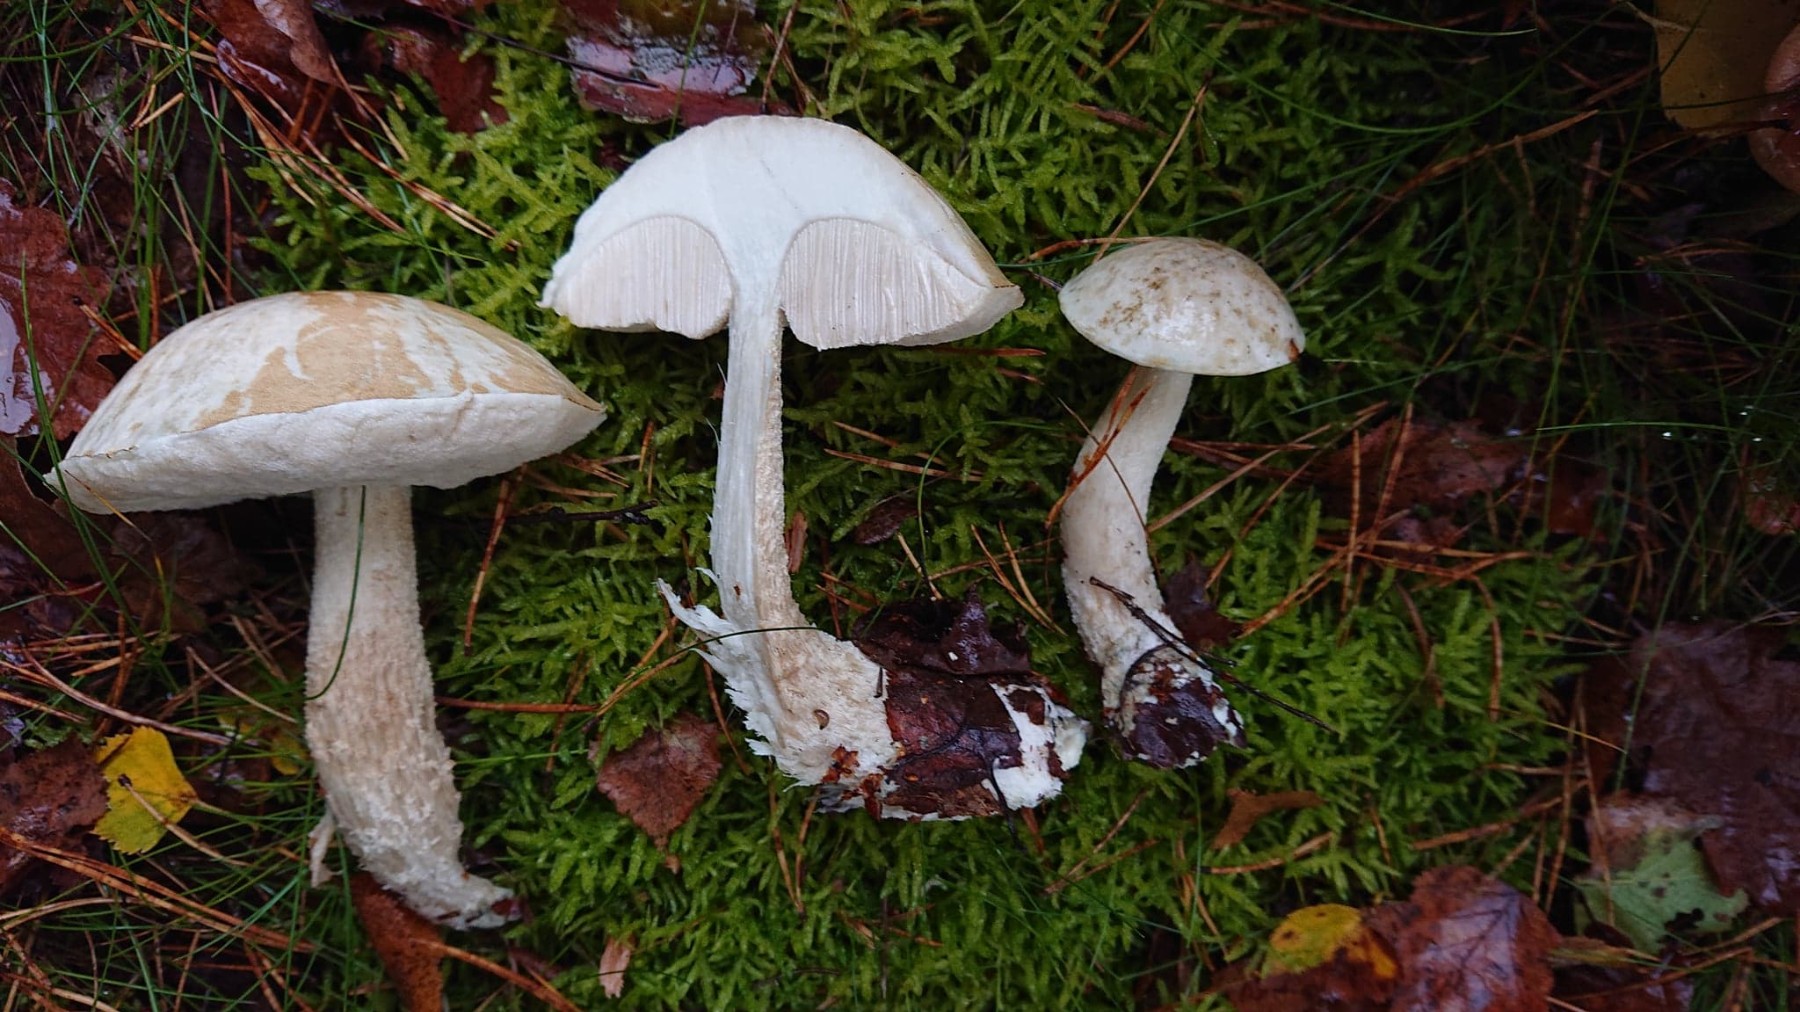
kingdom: Fungi
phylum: Basidiomycota
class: Agaricomycetes
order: Boletales
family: Boletaceae
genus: Leccinum
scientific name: Leccinum scabrum
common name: hvid skælrørhat
